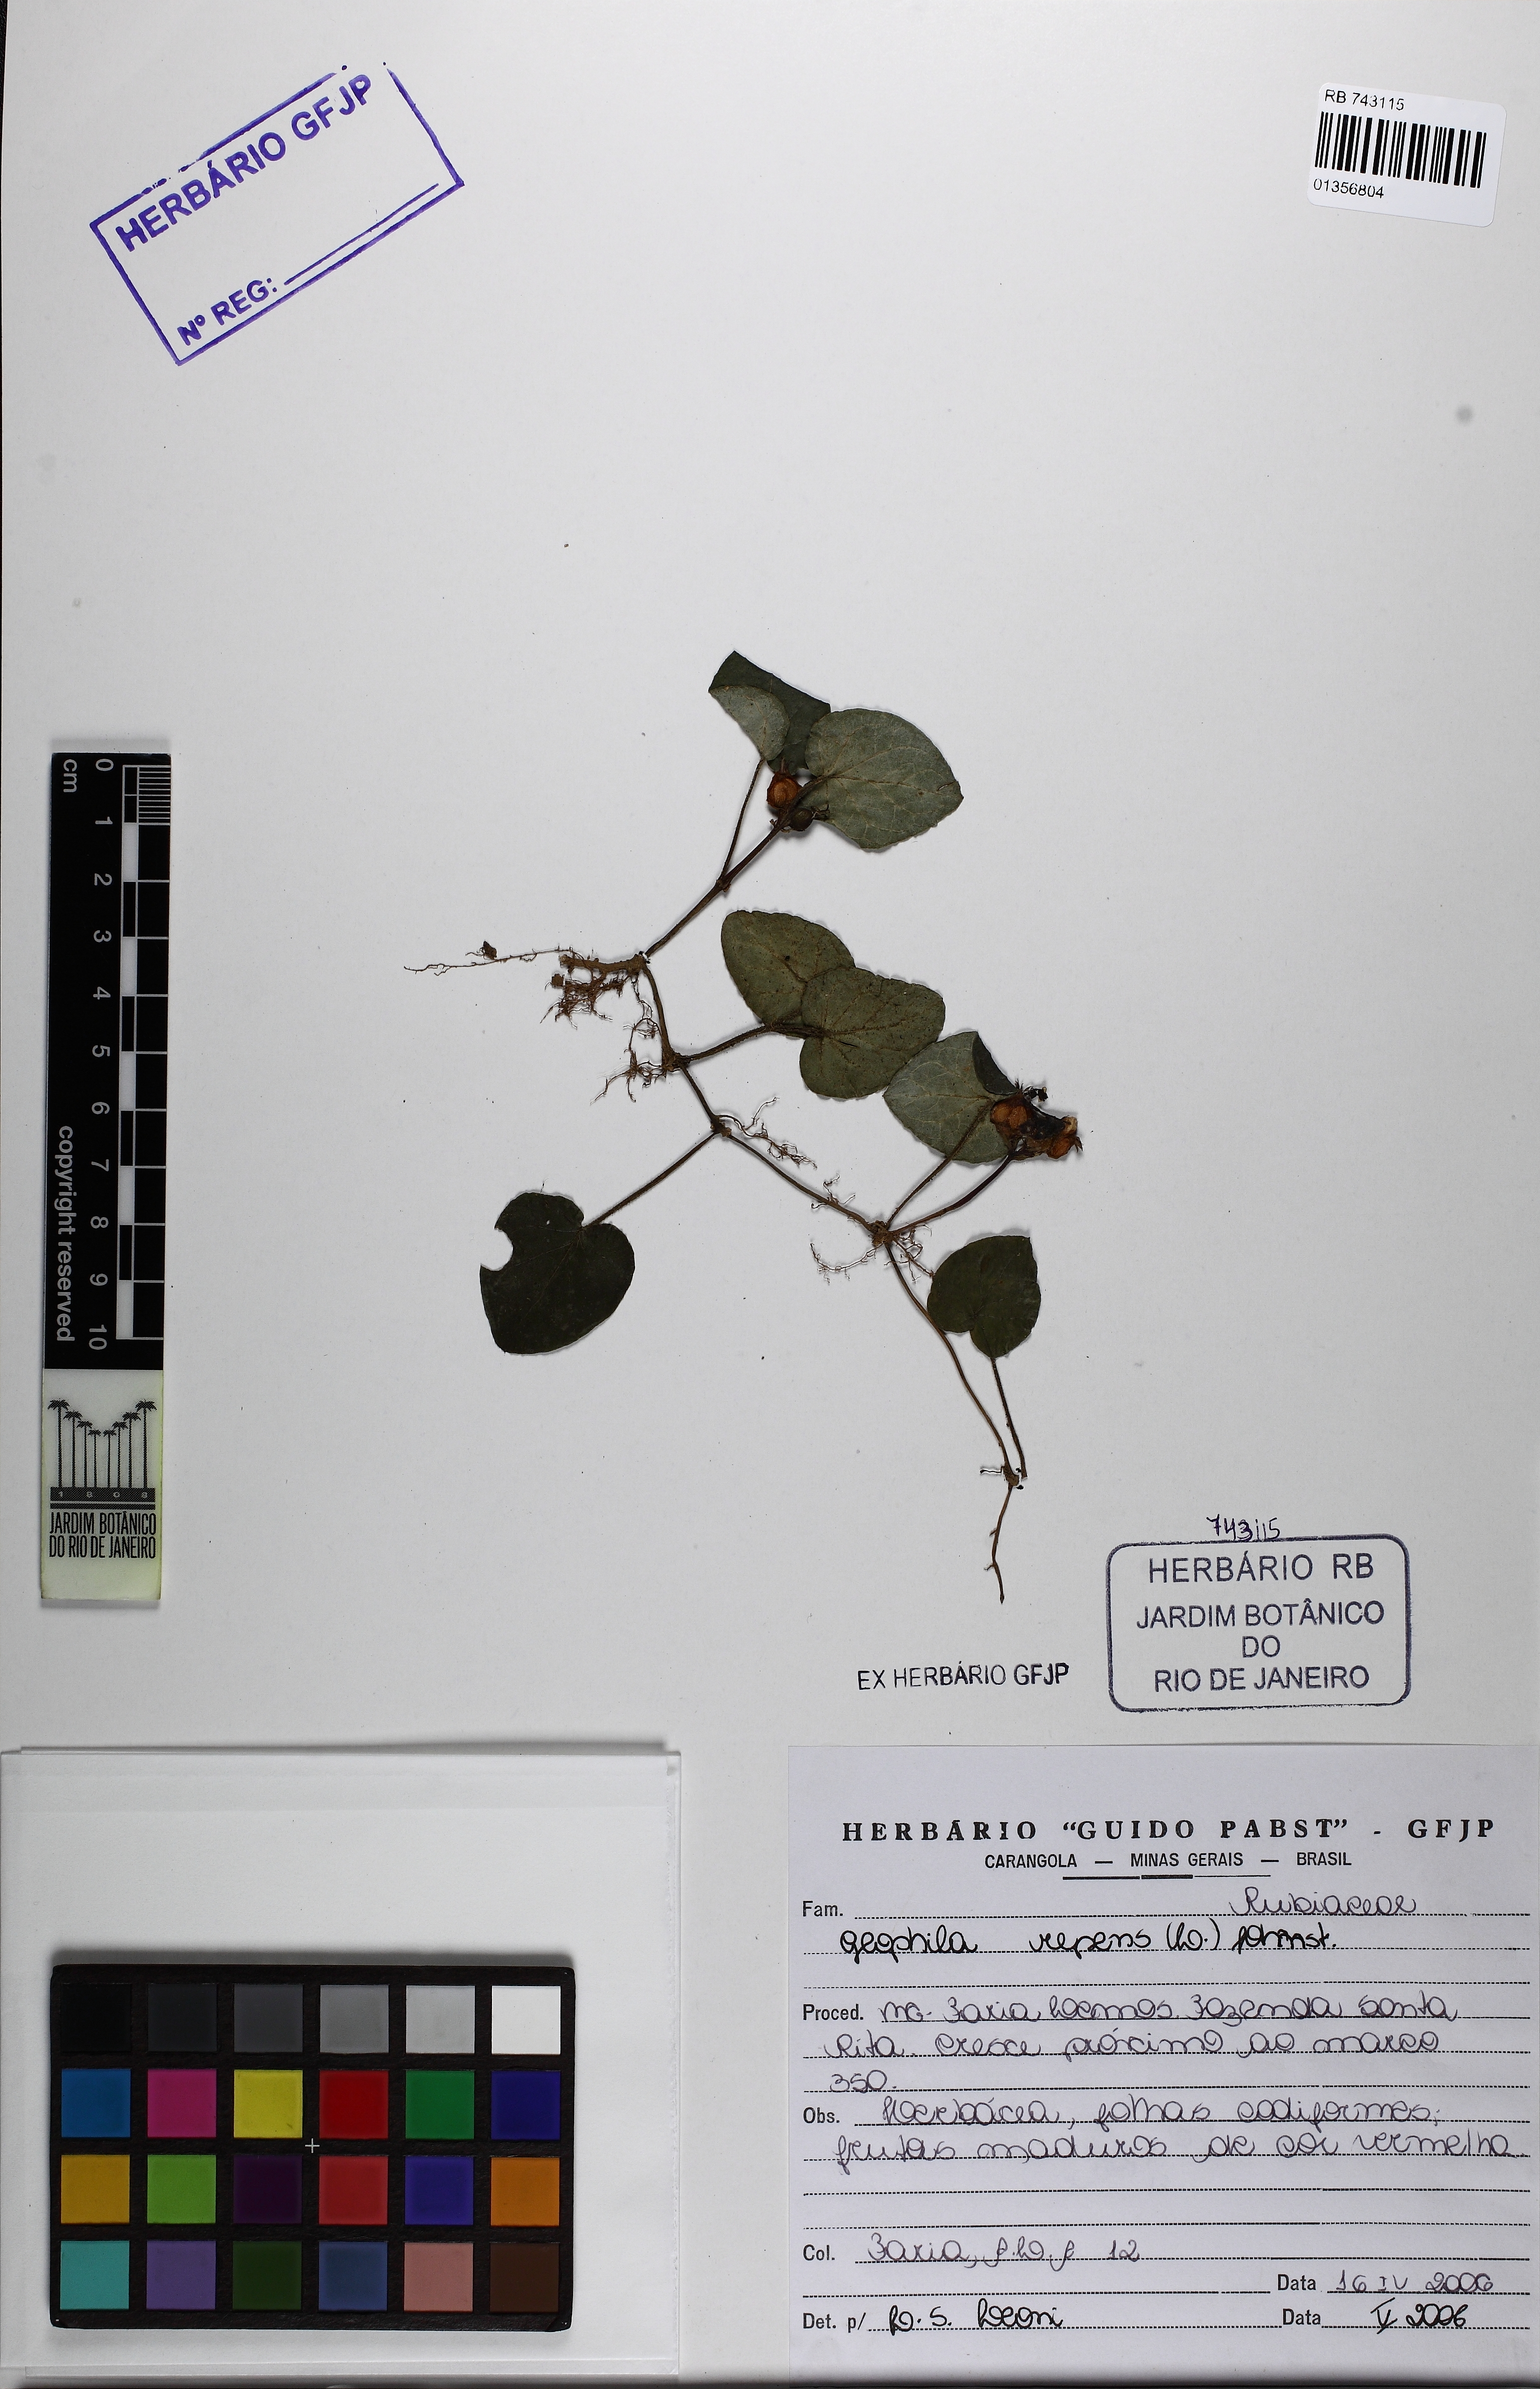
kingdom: Plantae
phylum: Tracheophyta
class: Magnoliopsida
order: Gentianales
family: Rubiaceae
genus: Geophila
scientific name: Geophila repens
